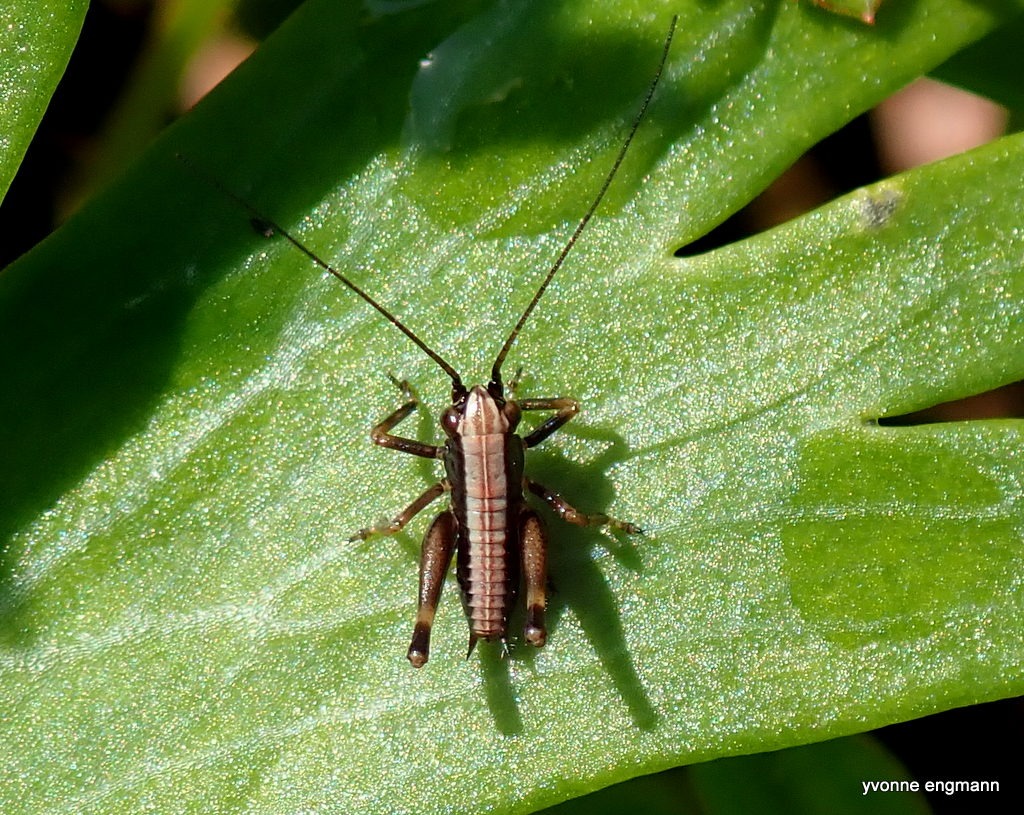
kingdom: Animalia
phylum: Arthropoda
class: Insecta
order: Orthoptera
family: Tettigoniidae
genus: Pholidoptera
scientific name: Pholidoptera griseoaptera
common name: Buskgræshoppe
